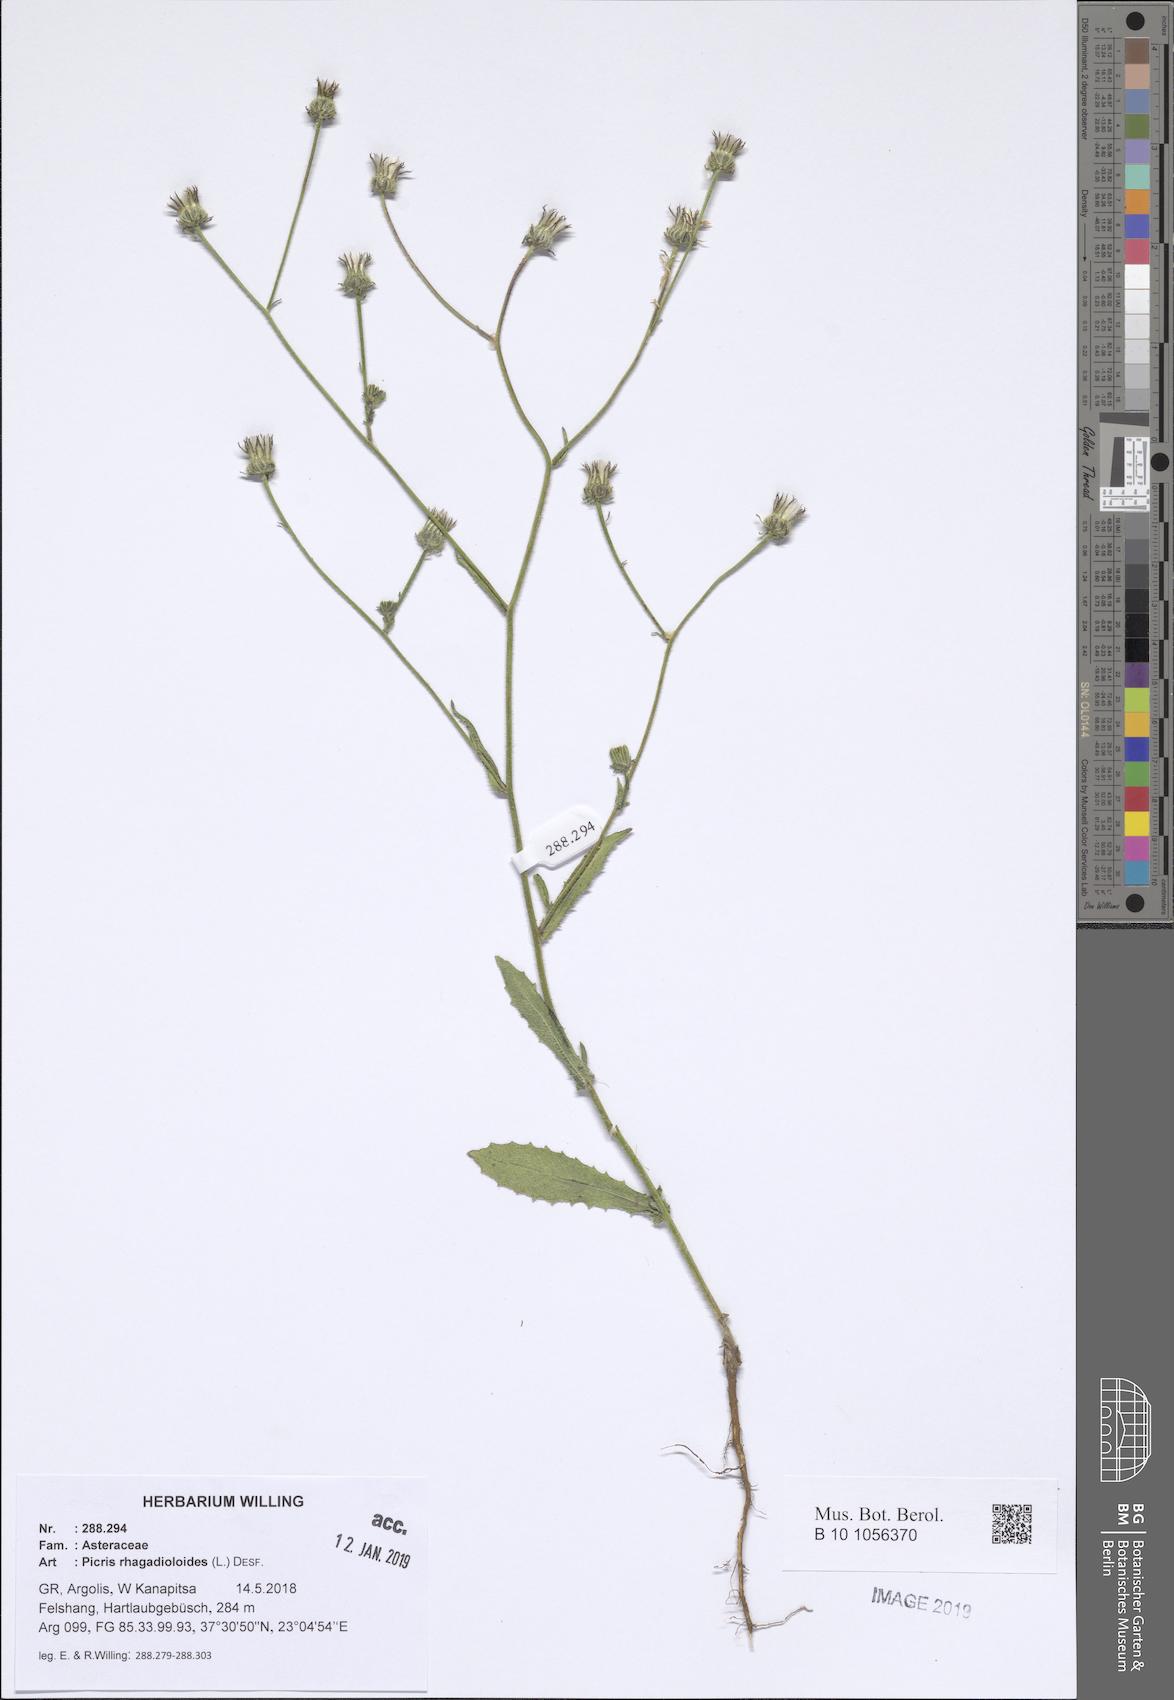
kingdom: Plantae
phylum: Tracheophyta
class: Magnoliopsida
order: Asterales
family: Asteraceae
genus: Picris
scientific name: Picris rhagadioloides
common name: Oxtongue
